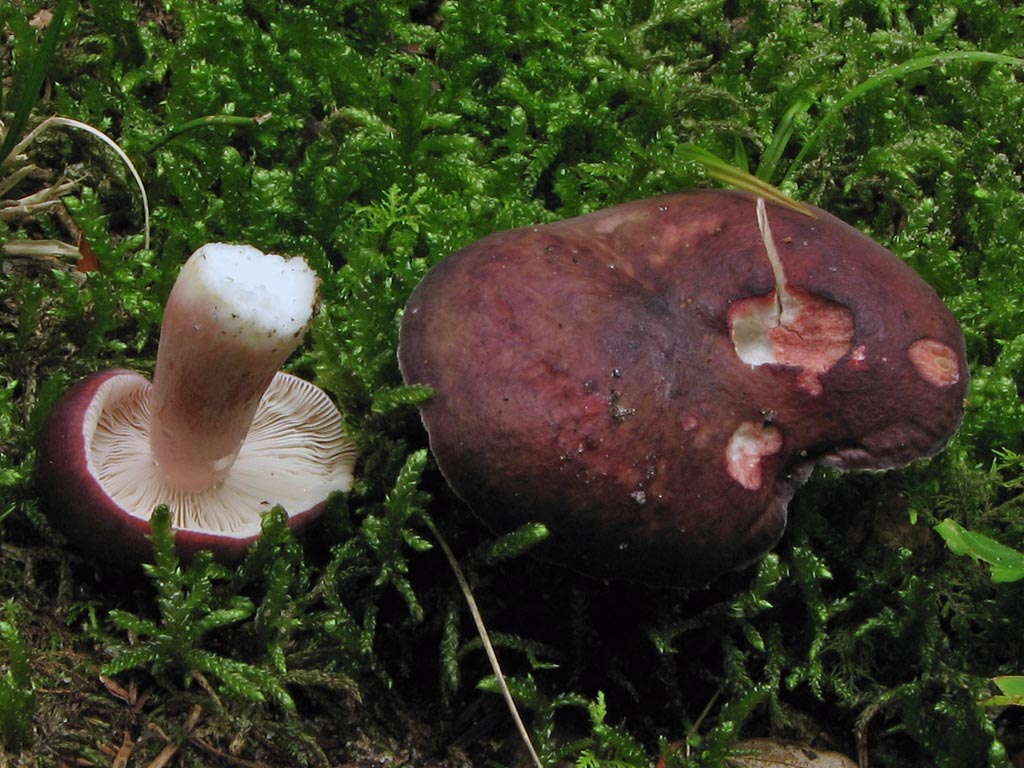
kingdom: Fungi
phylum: Basidiomycota
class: Agaricomycetes
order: Russulales
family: Russulaceae
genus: Russula
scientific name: Russula queletii
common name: Quélets skørhat
